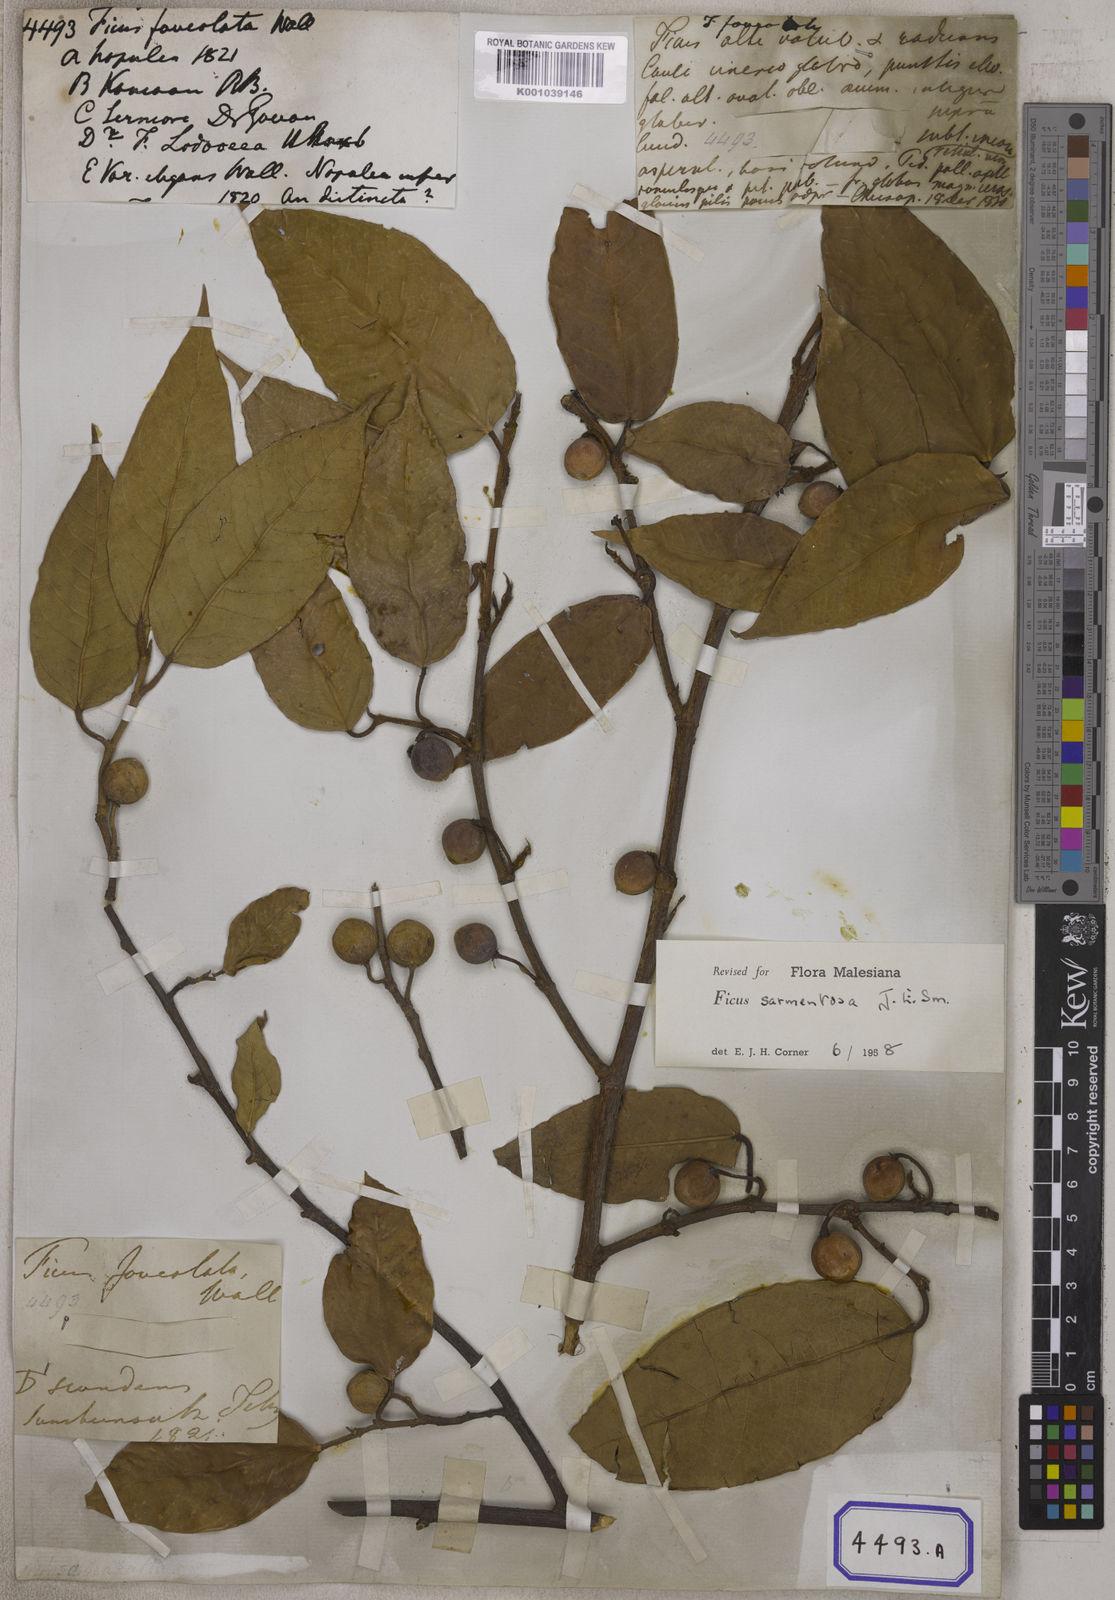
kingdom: Plantae
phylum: Tracheophyta
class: Magnoliopsida
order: Rosales
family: Moraceae
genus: Ficus
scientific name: Ficus
